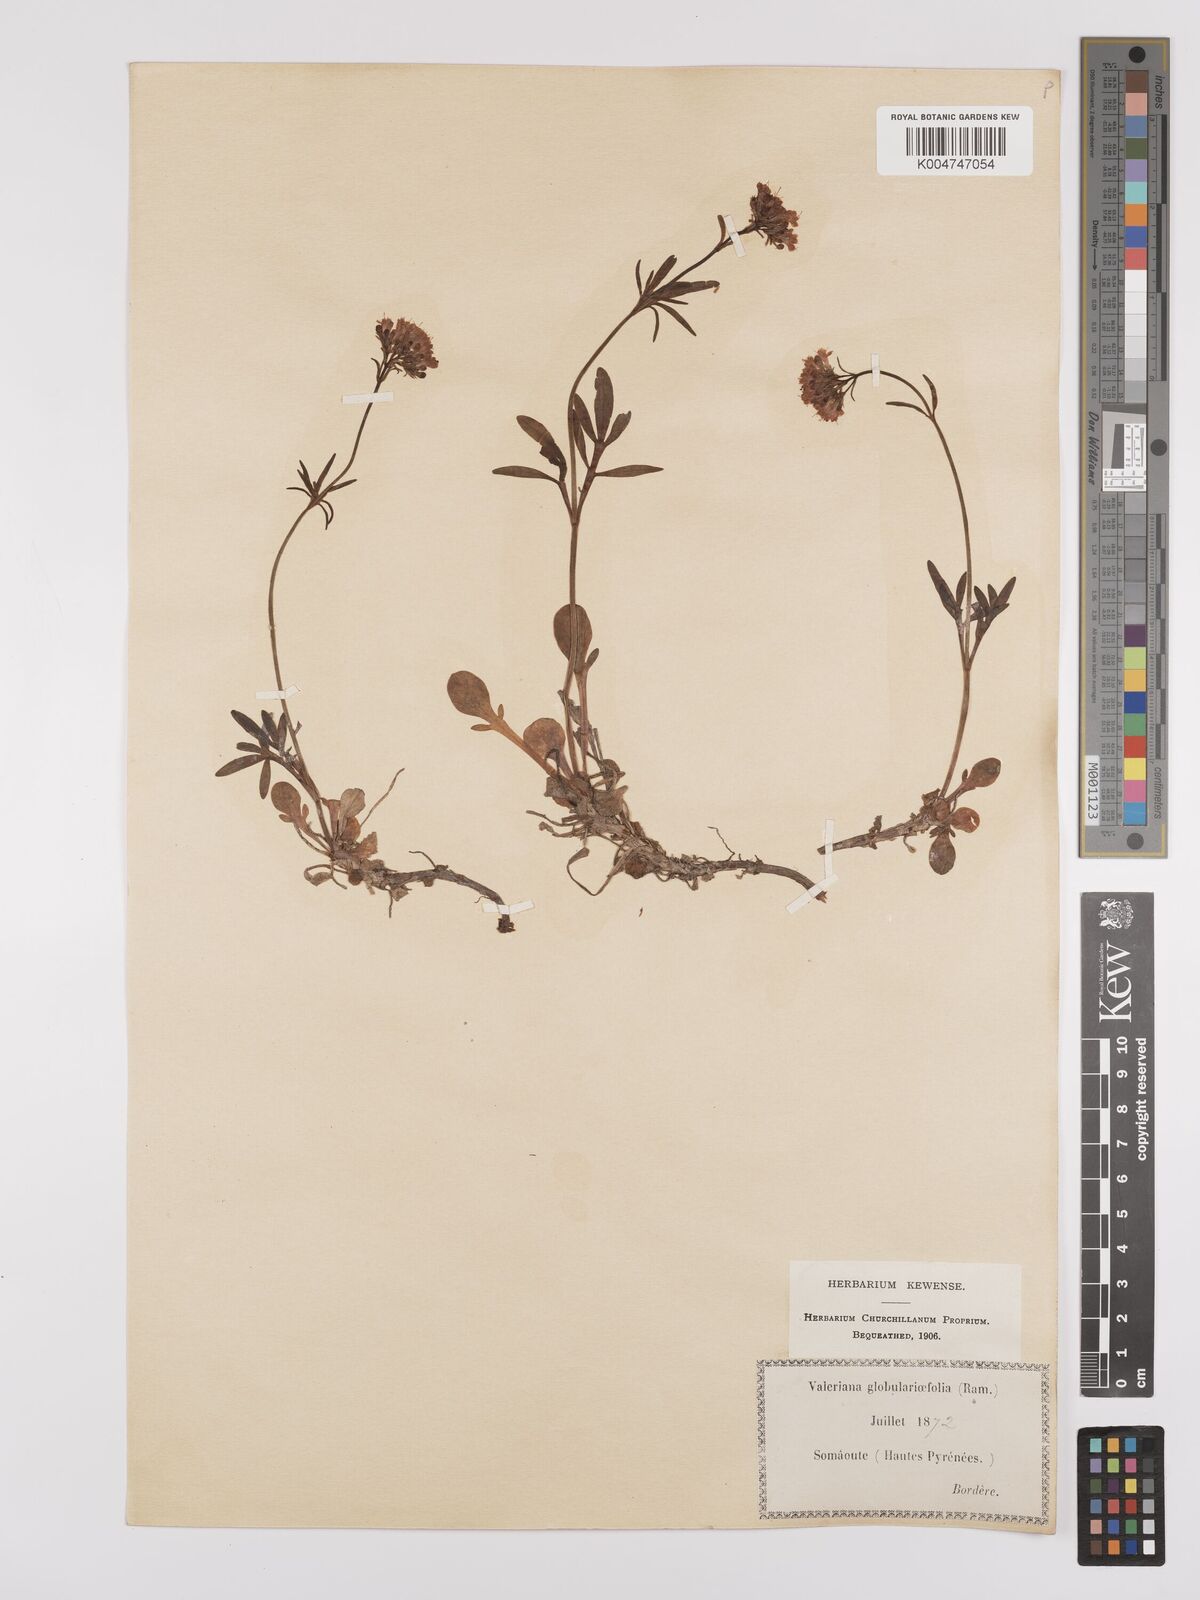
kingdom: Plantae
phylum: Tracheophyta
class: Magnoliopsida
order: Dipsacales
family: Caprifoliaceae
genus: Valeriana
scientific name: Valeriana apula
